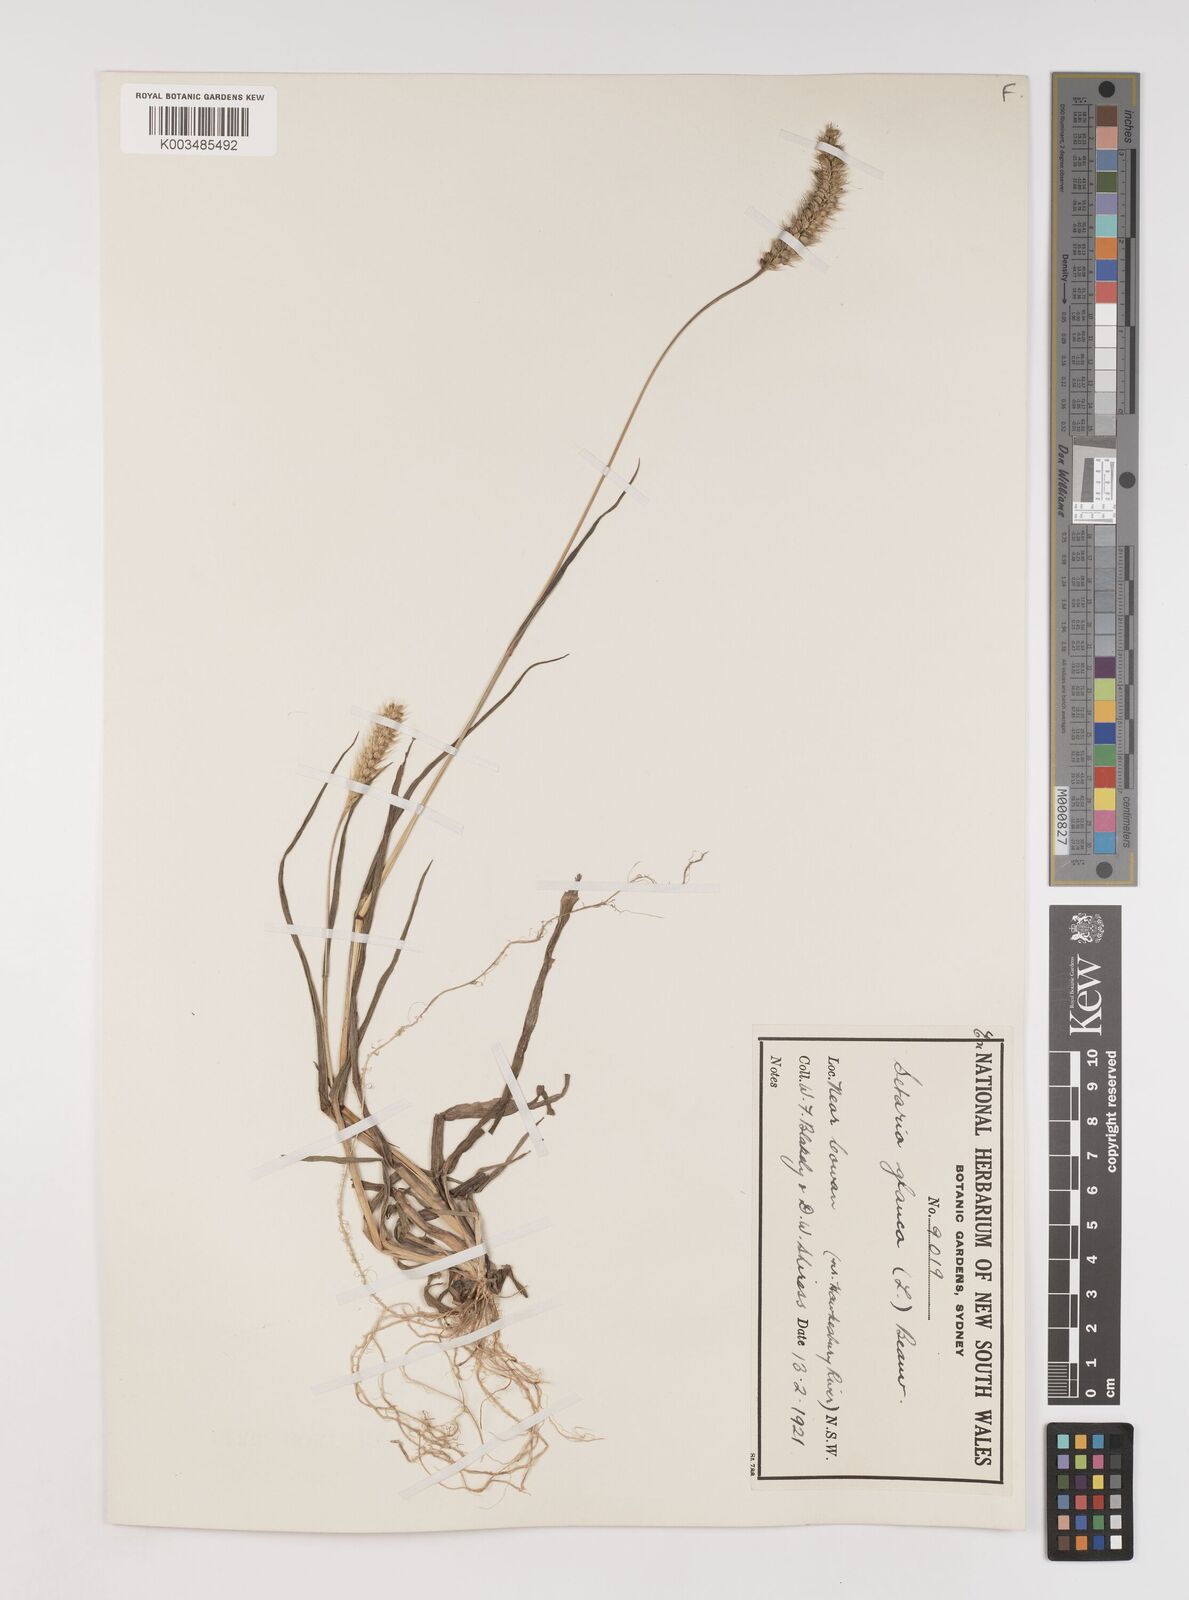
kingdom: Plantae
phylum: Tracheophyta
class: Liliopsida
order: Poales
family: Poaceae
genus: Setaria
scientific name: Setaria pumila
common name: Yellow bristle-grass
